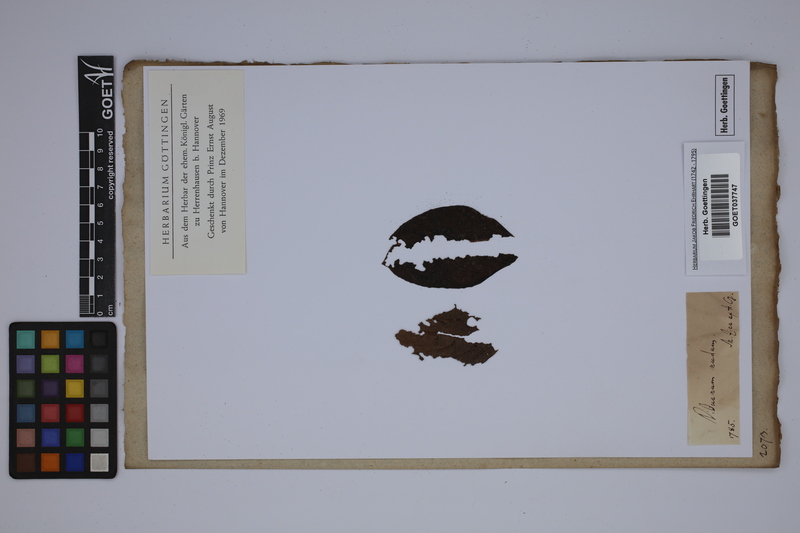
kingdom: Plantae
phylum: Tracheophyta
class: Magnoliopsida
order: Dipsacales
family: Viburnaceae
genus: Viburnum
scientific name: Viburnum nudum
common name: Possum haw
